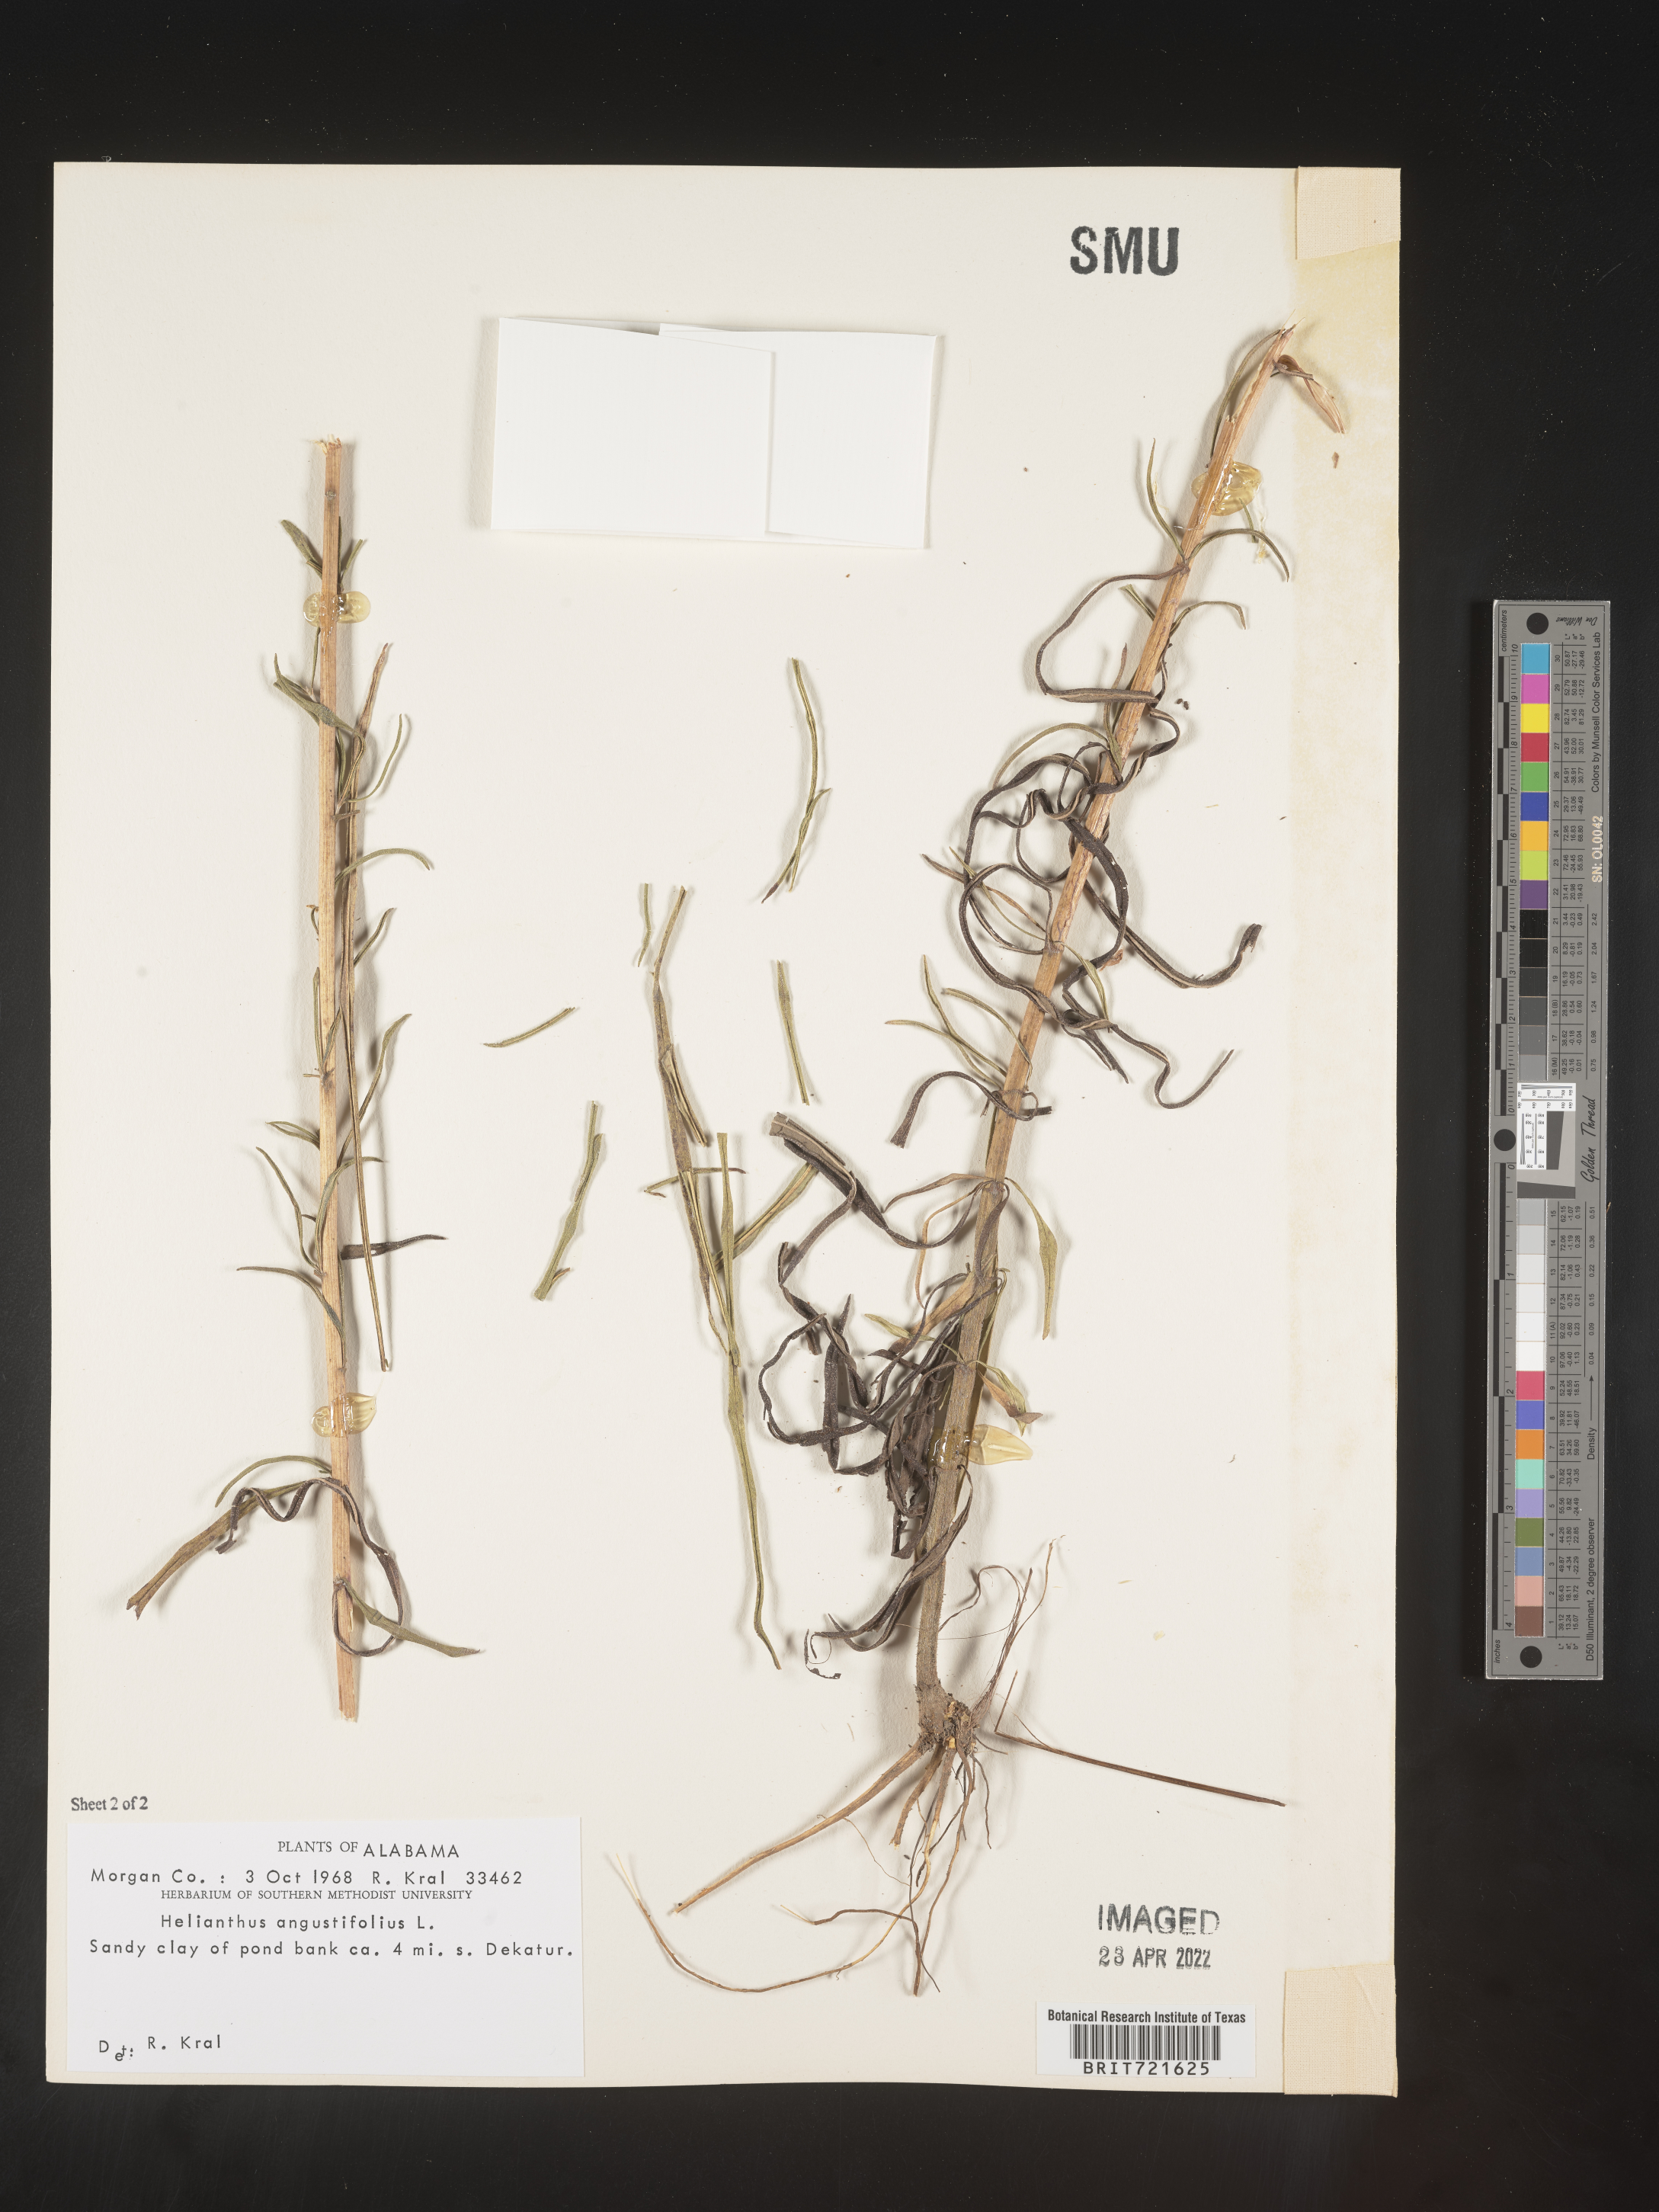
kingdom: Plantae
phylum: Tracheophyta
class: Magnoliopsida
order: Asterales
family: Asteraceae
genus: Helianthus
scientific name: Helianthus angustifolius
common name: Swamp sunflower
